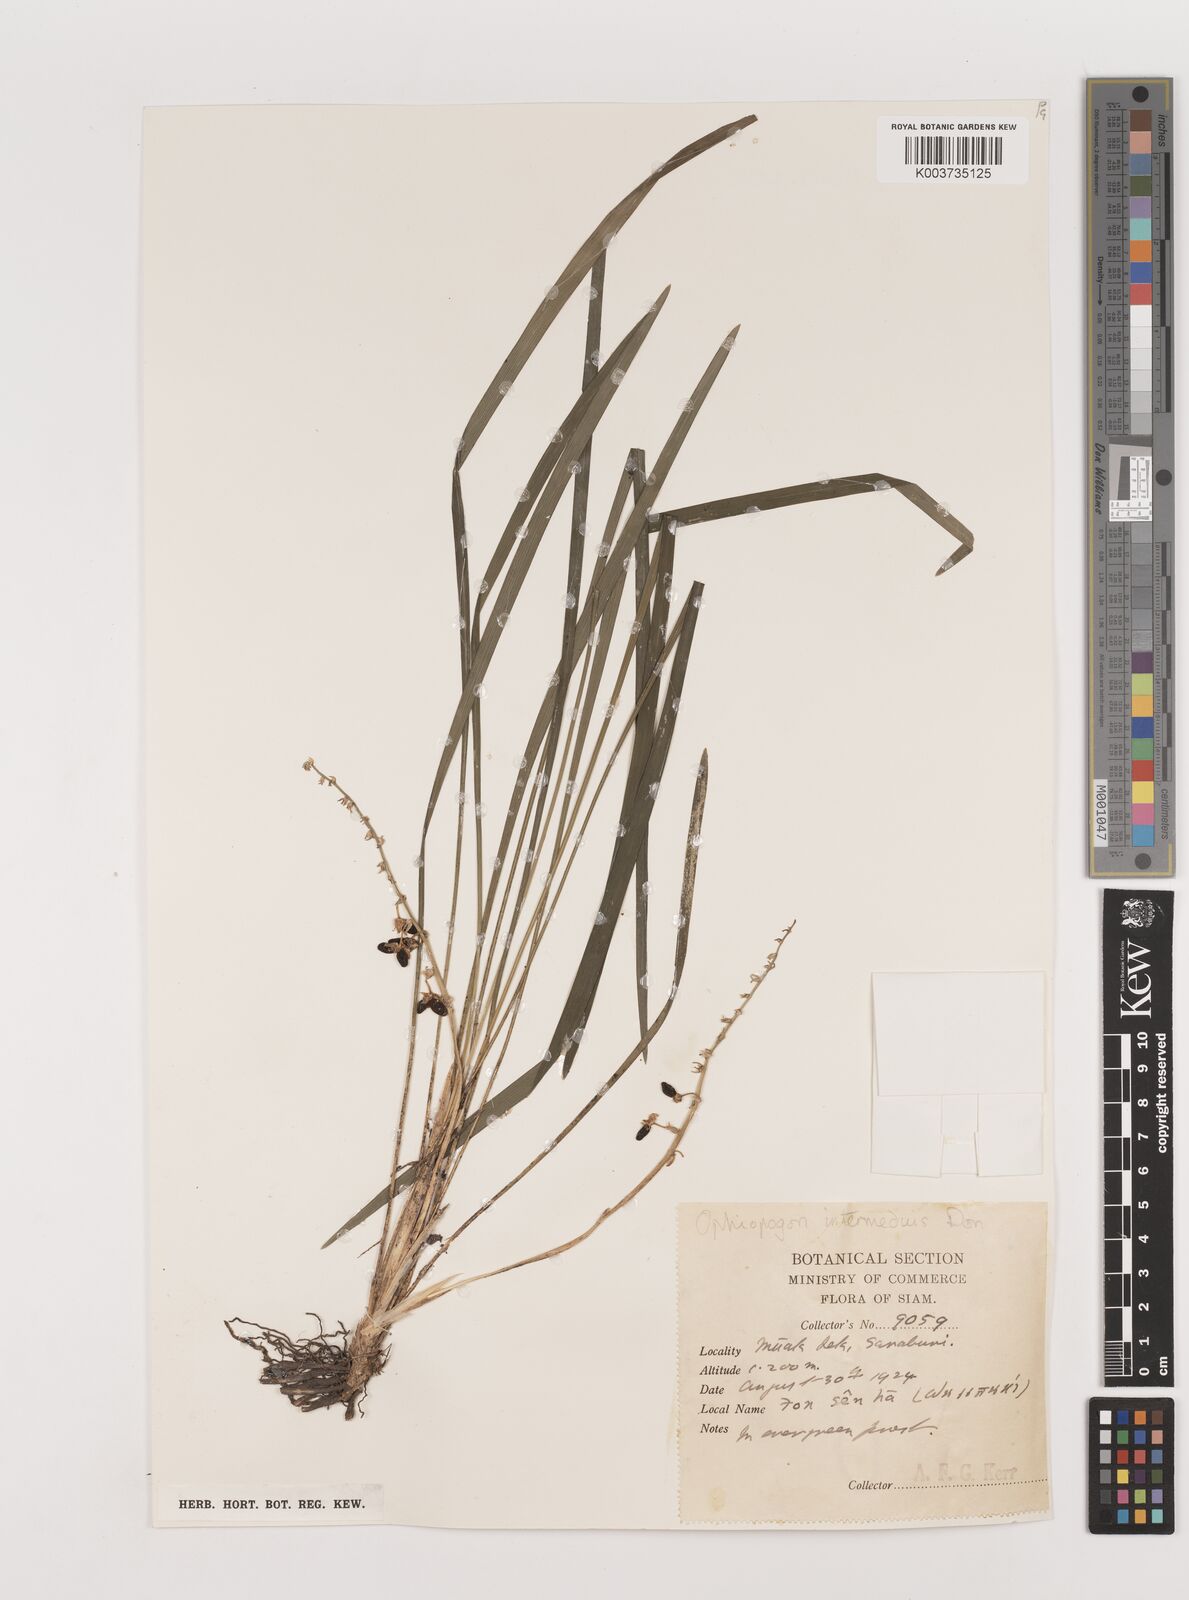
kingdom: Plantae
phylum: Tracheophyta
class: Liliopsida
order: Asparagales
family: Asparagaceae
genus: Ophiopogon
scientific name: Ophiopogon intermedius
